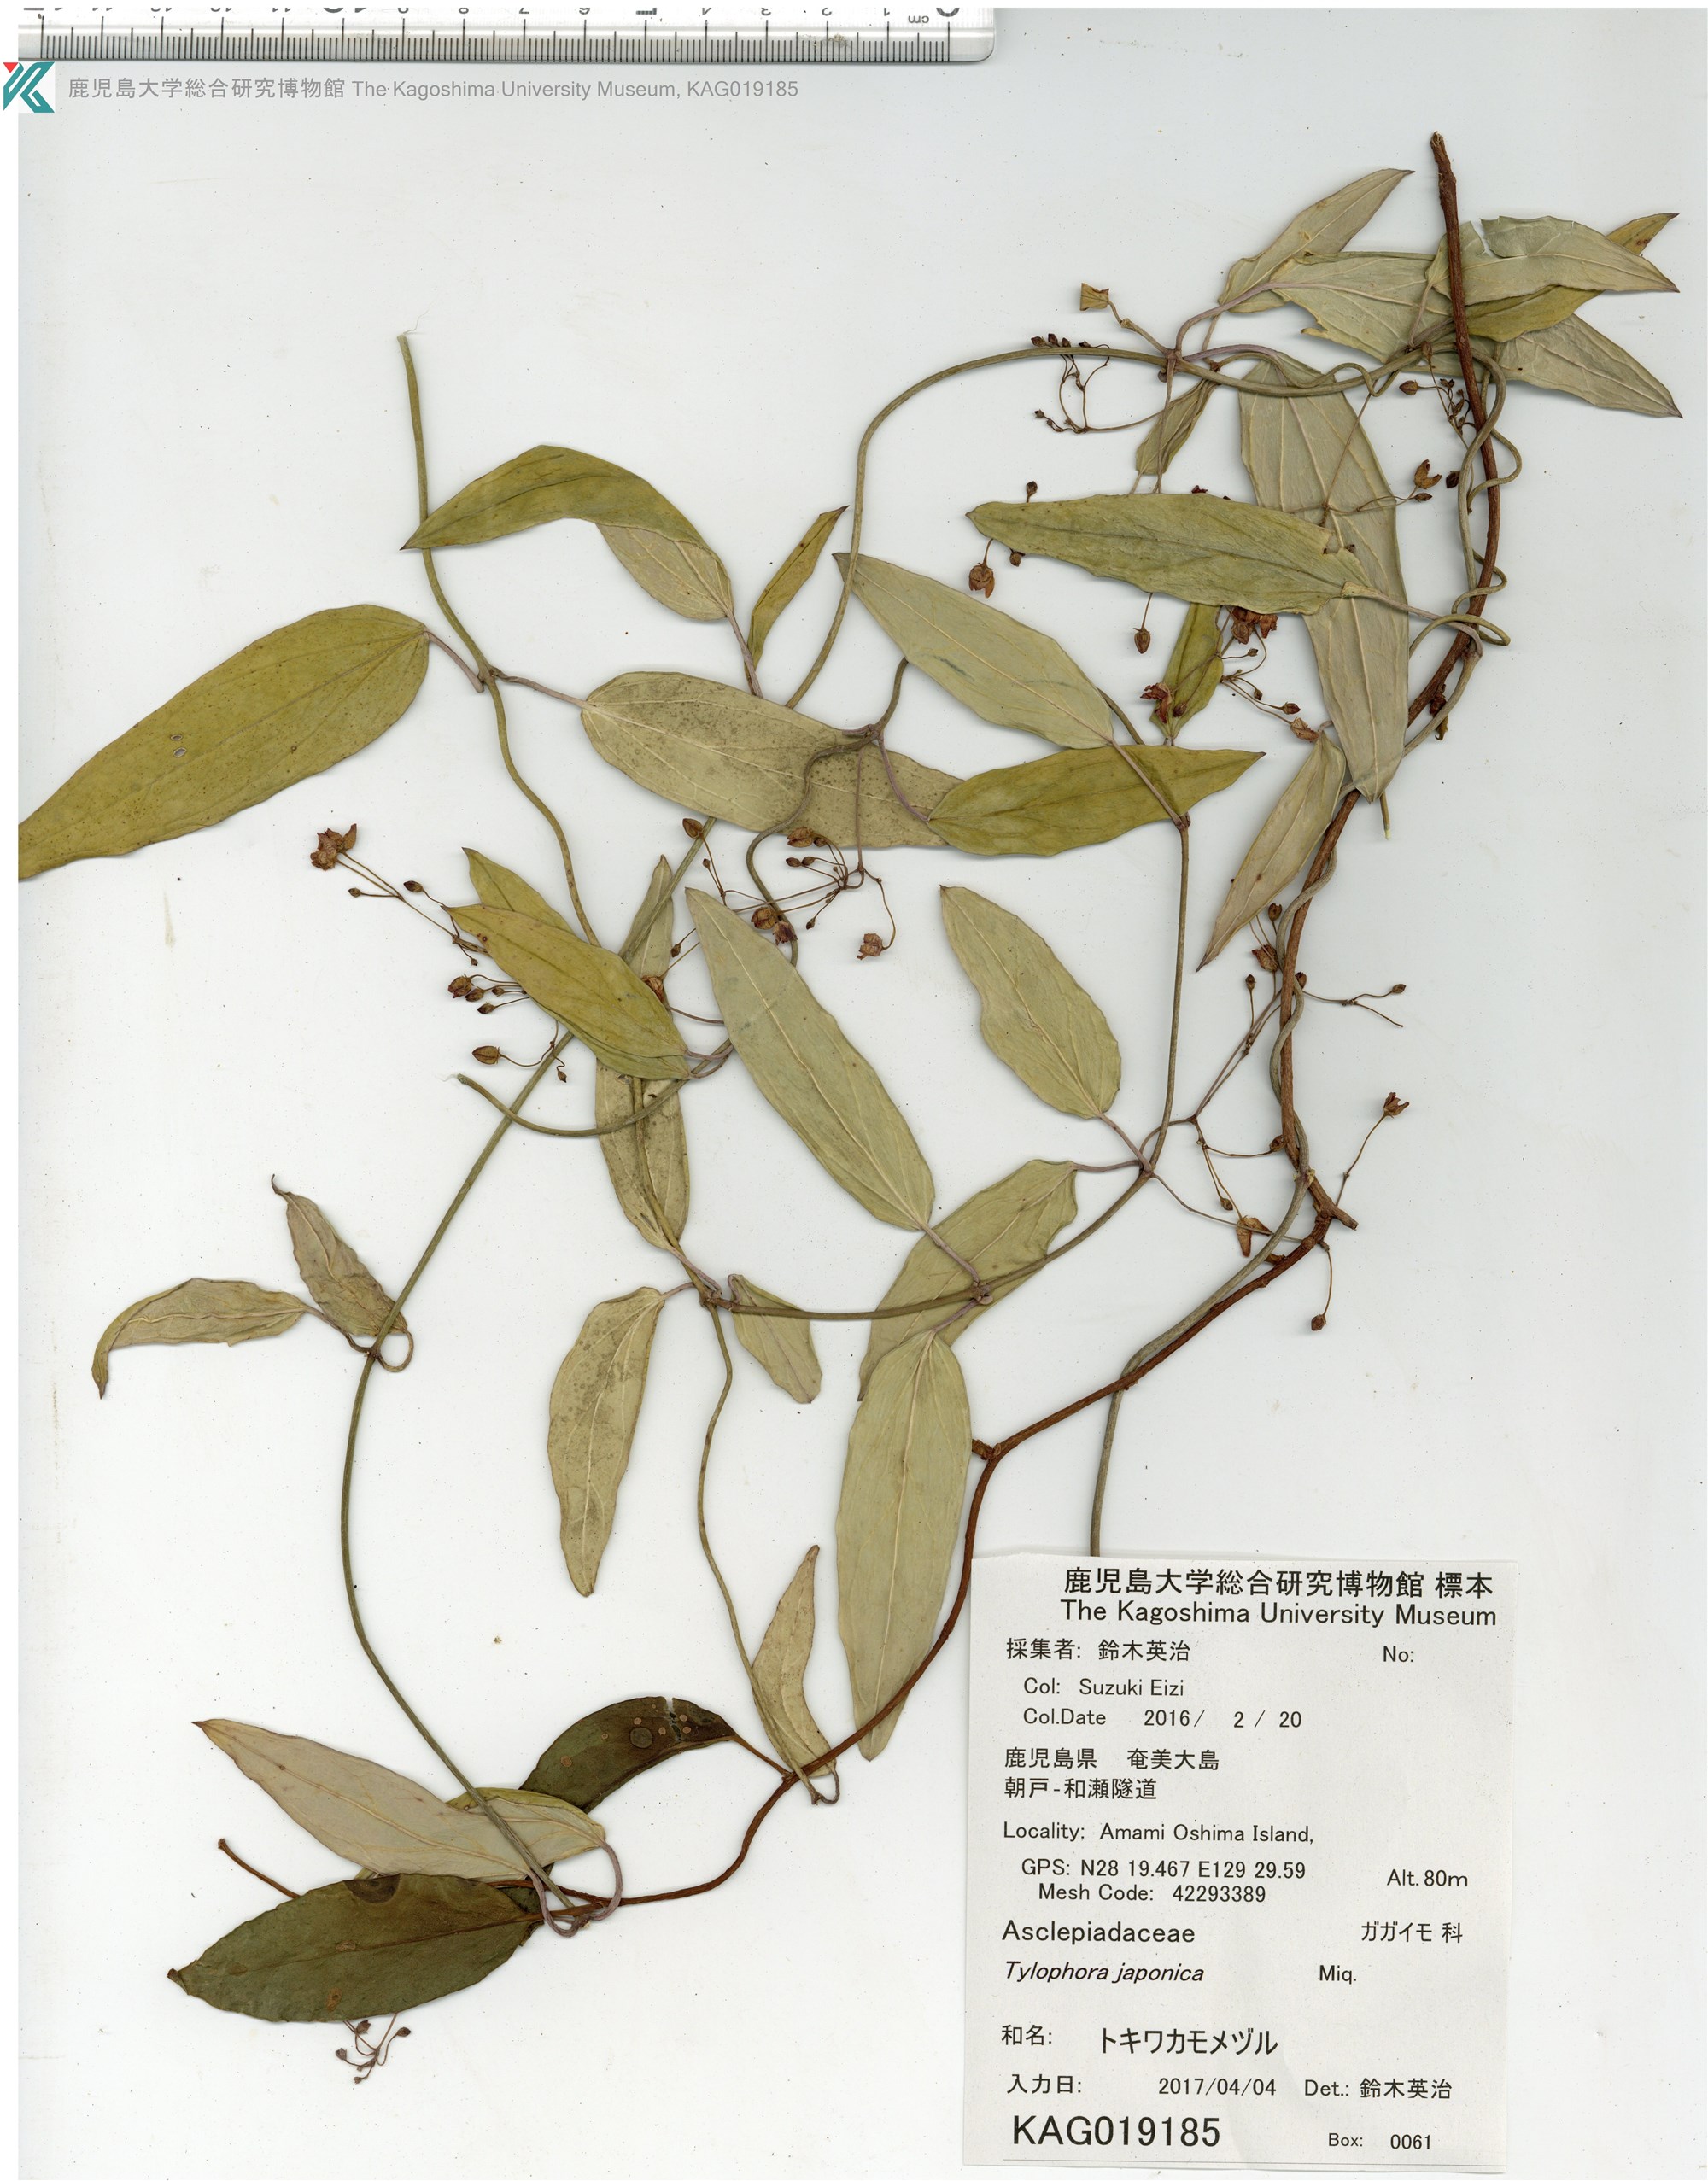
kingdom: Plantae
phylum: Tracheophyta
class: Magnoliopsida
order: Gentianales
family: Apocynaceae
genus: Vincetoxicum
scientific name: Vincetoxicum sieboldii
